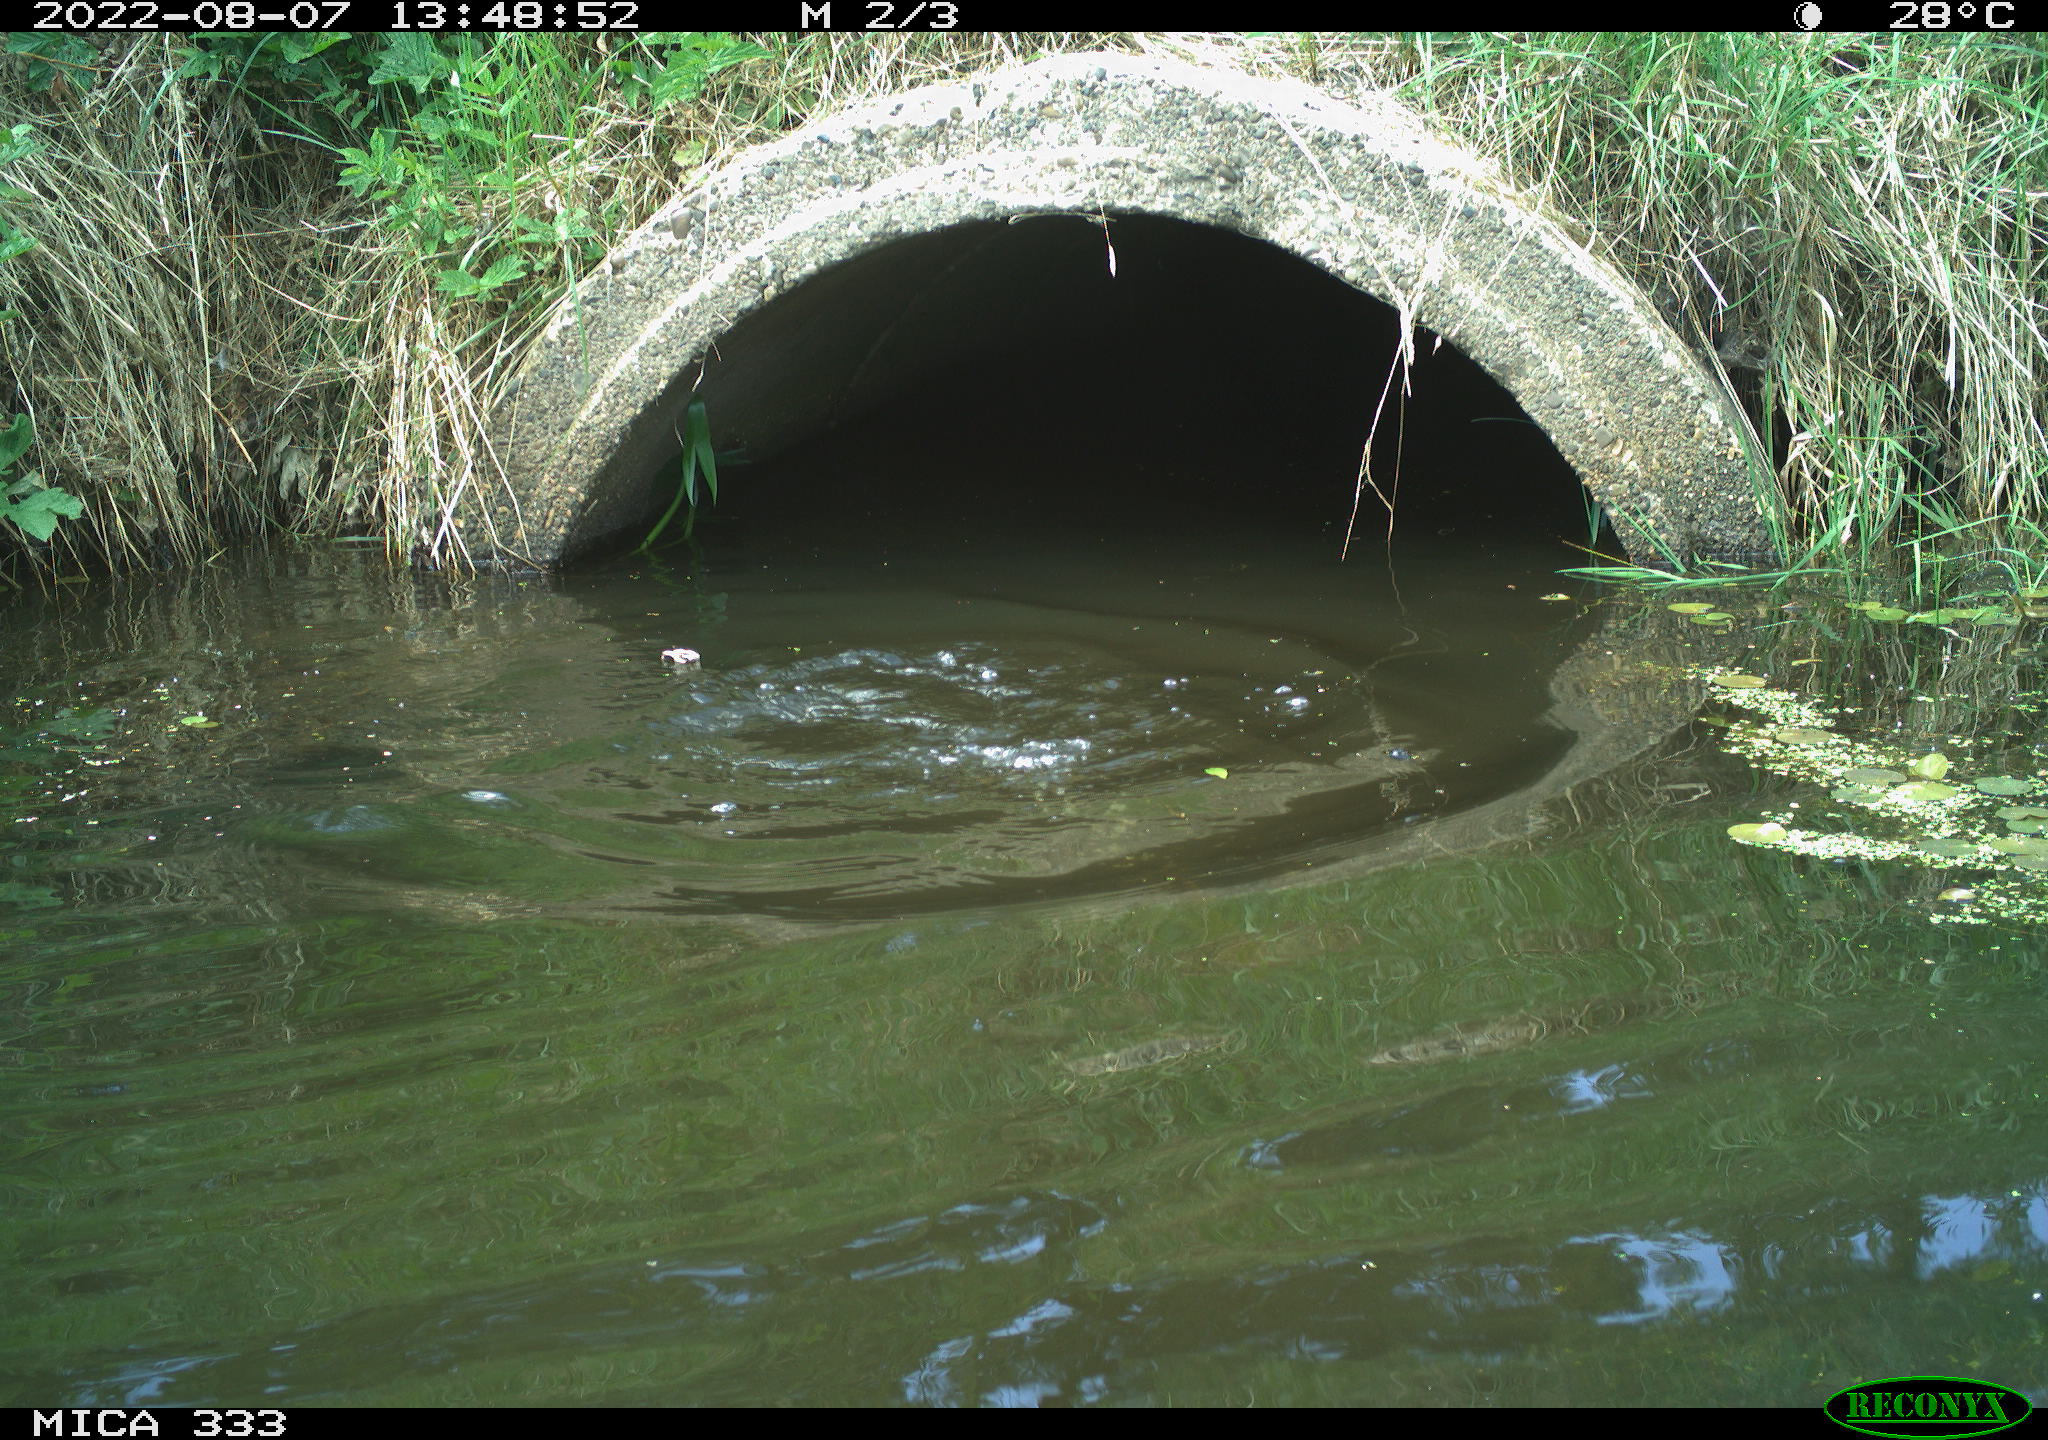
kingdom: Animalia
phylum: Chordata
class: Aves
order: Suliformes
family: Phalacrocoracidae
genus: Phalacrocorax
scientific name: Phalacrocorax carbo
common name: Great cormorant
